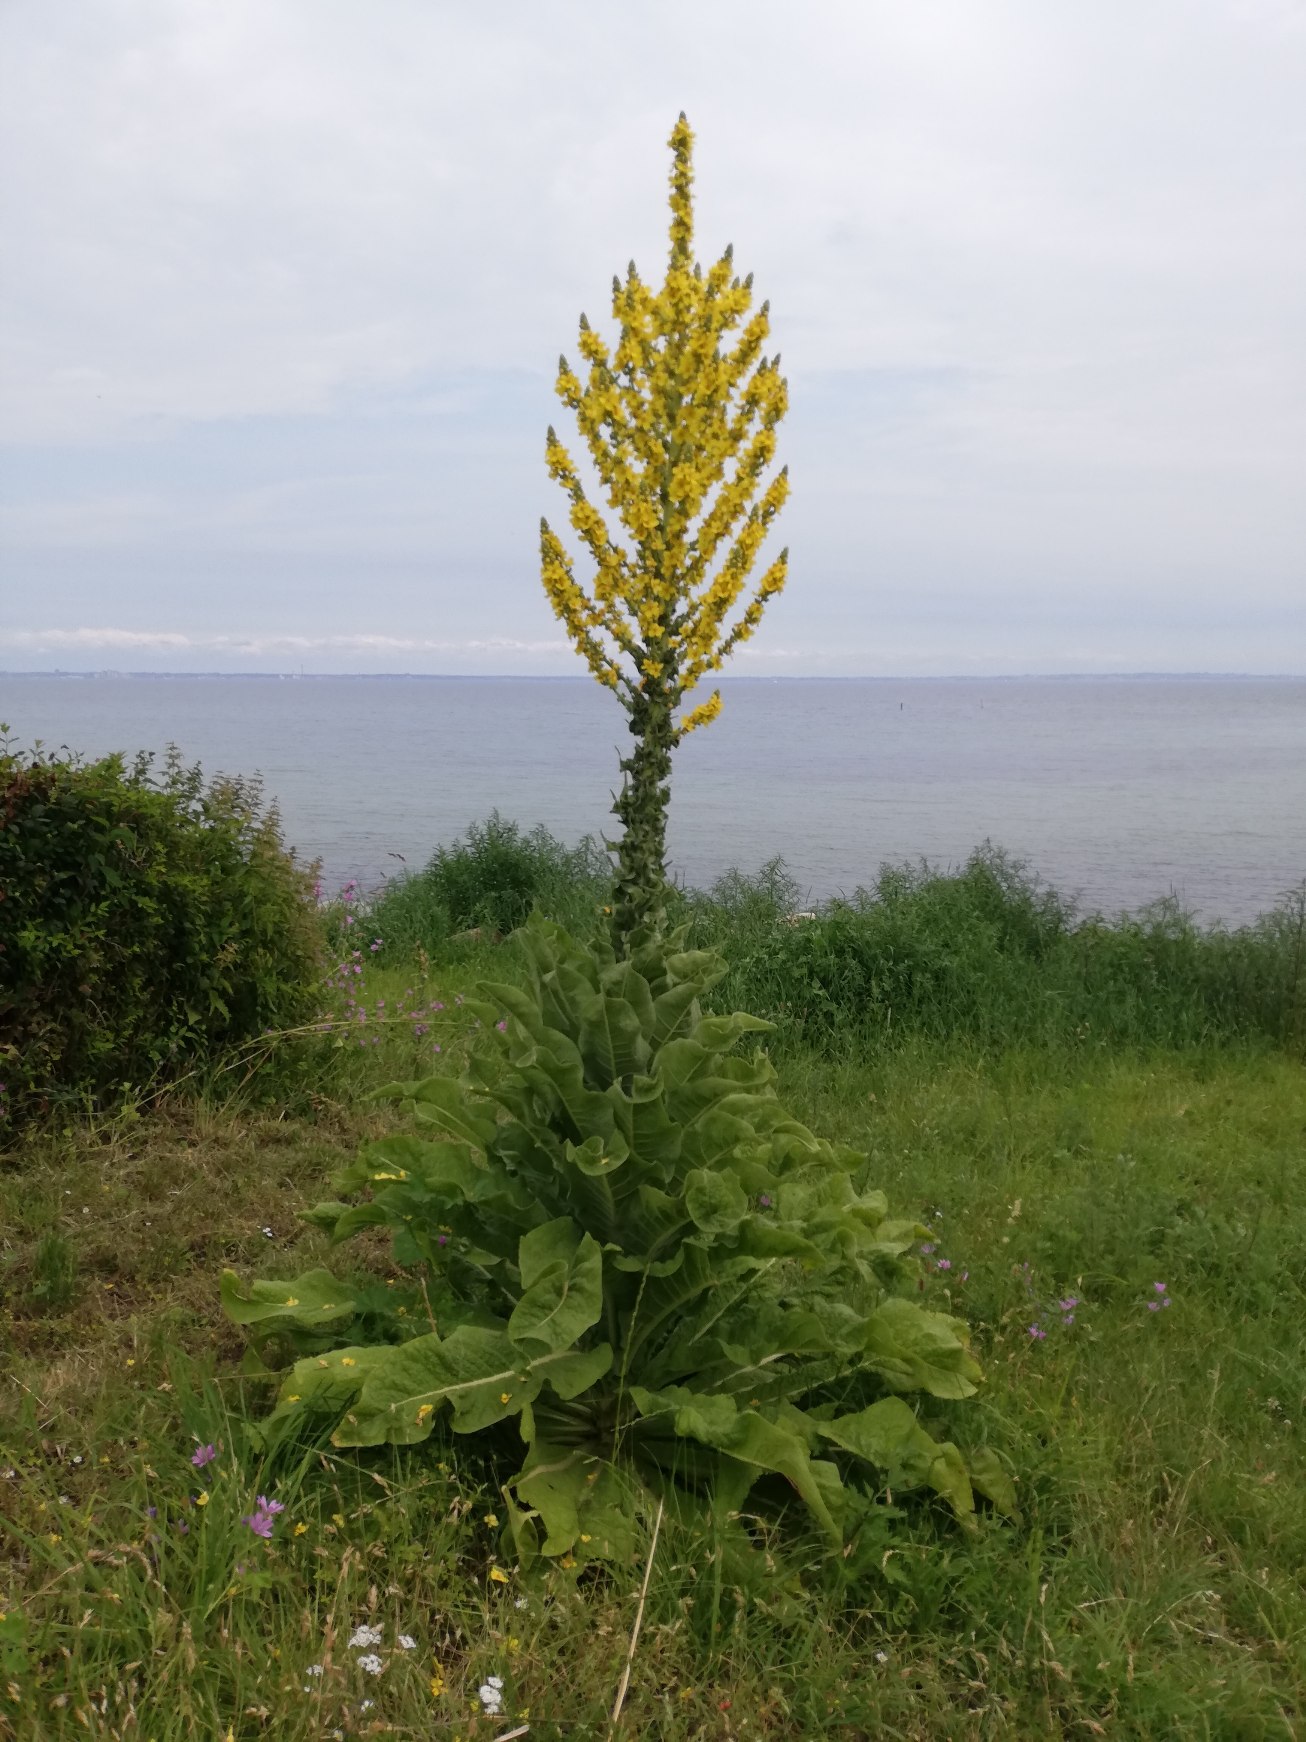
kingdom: Plantae
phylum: Tracheophyta
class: Magnoliopsida
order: Lamiales
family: Scrophulariaceae
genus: Verbascum
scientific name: Verbascum speciosum
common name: Kandelaber-kongelys
